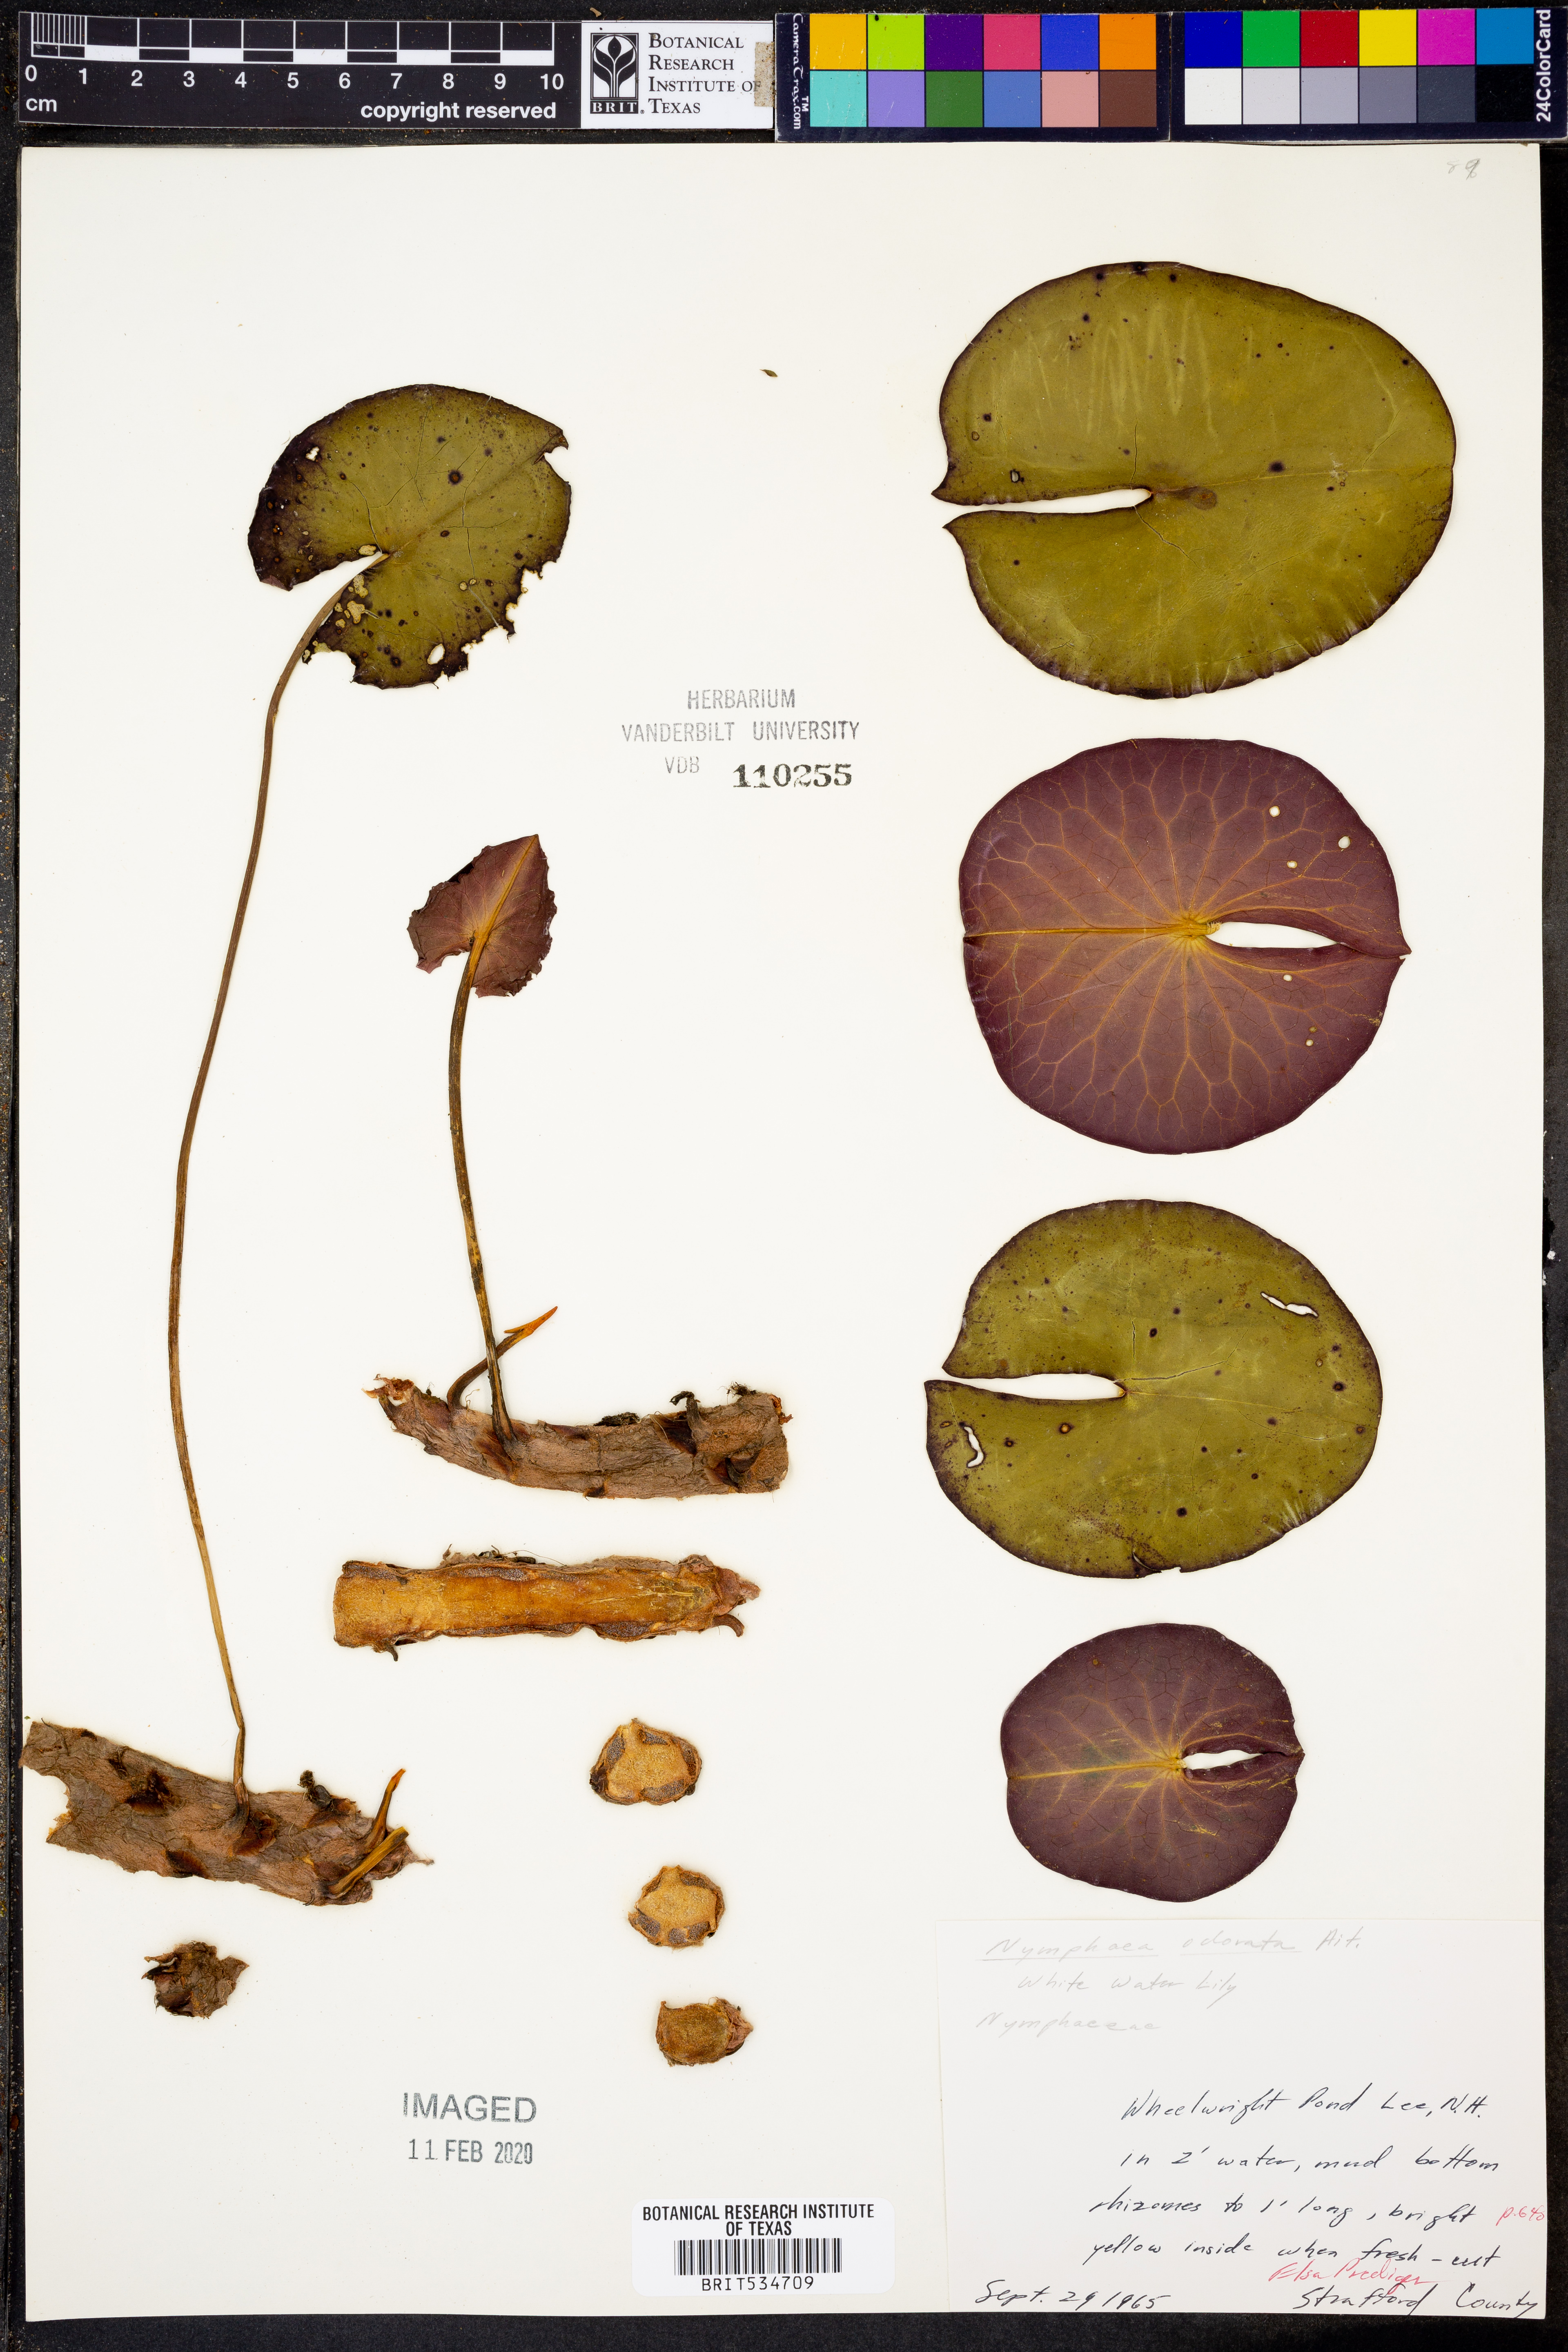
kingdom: Plantae
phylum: Tracheophyta
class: Magnoliopsida
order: Nymphaeales
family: Nymphaeaceae
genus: Nymphaea
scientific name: Nymphaea odorata
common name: Fragrant water-lily
